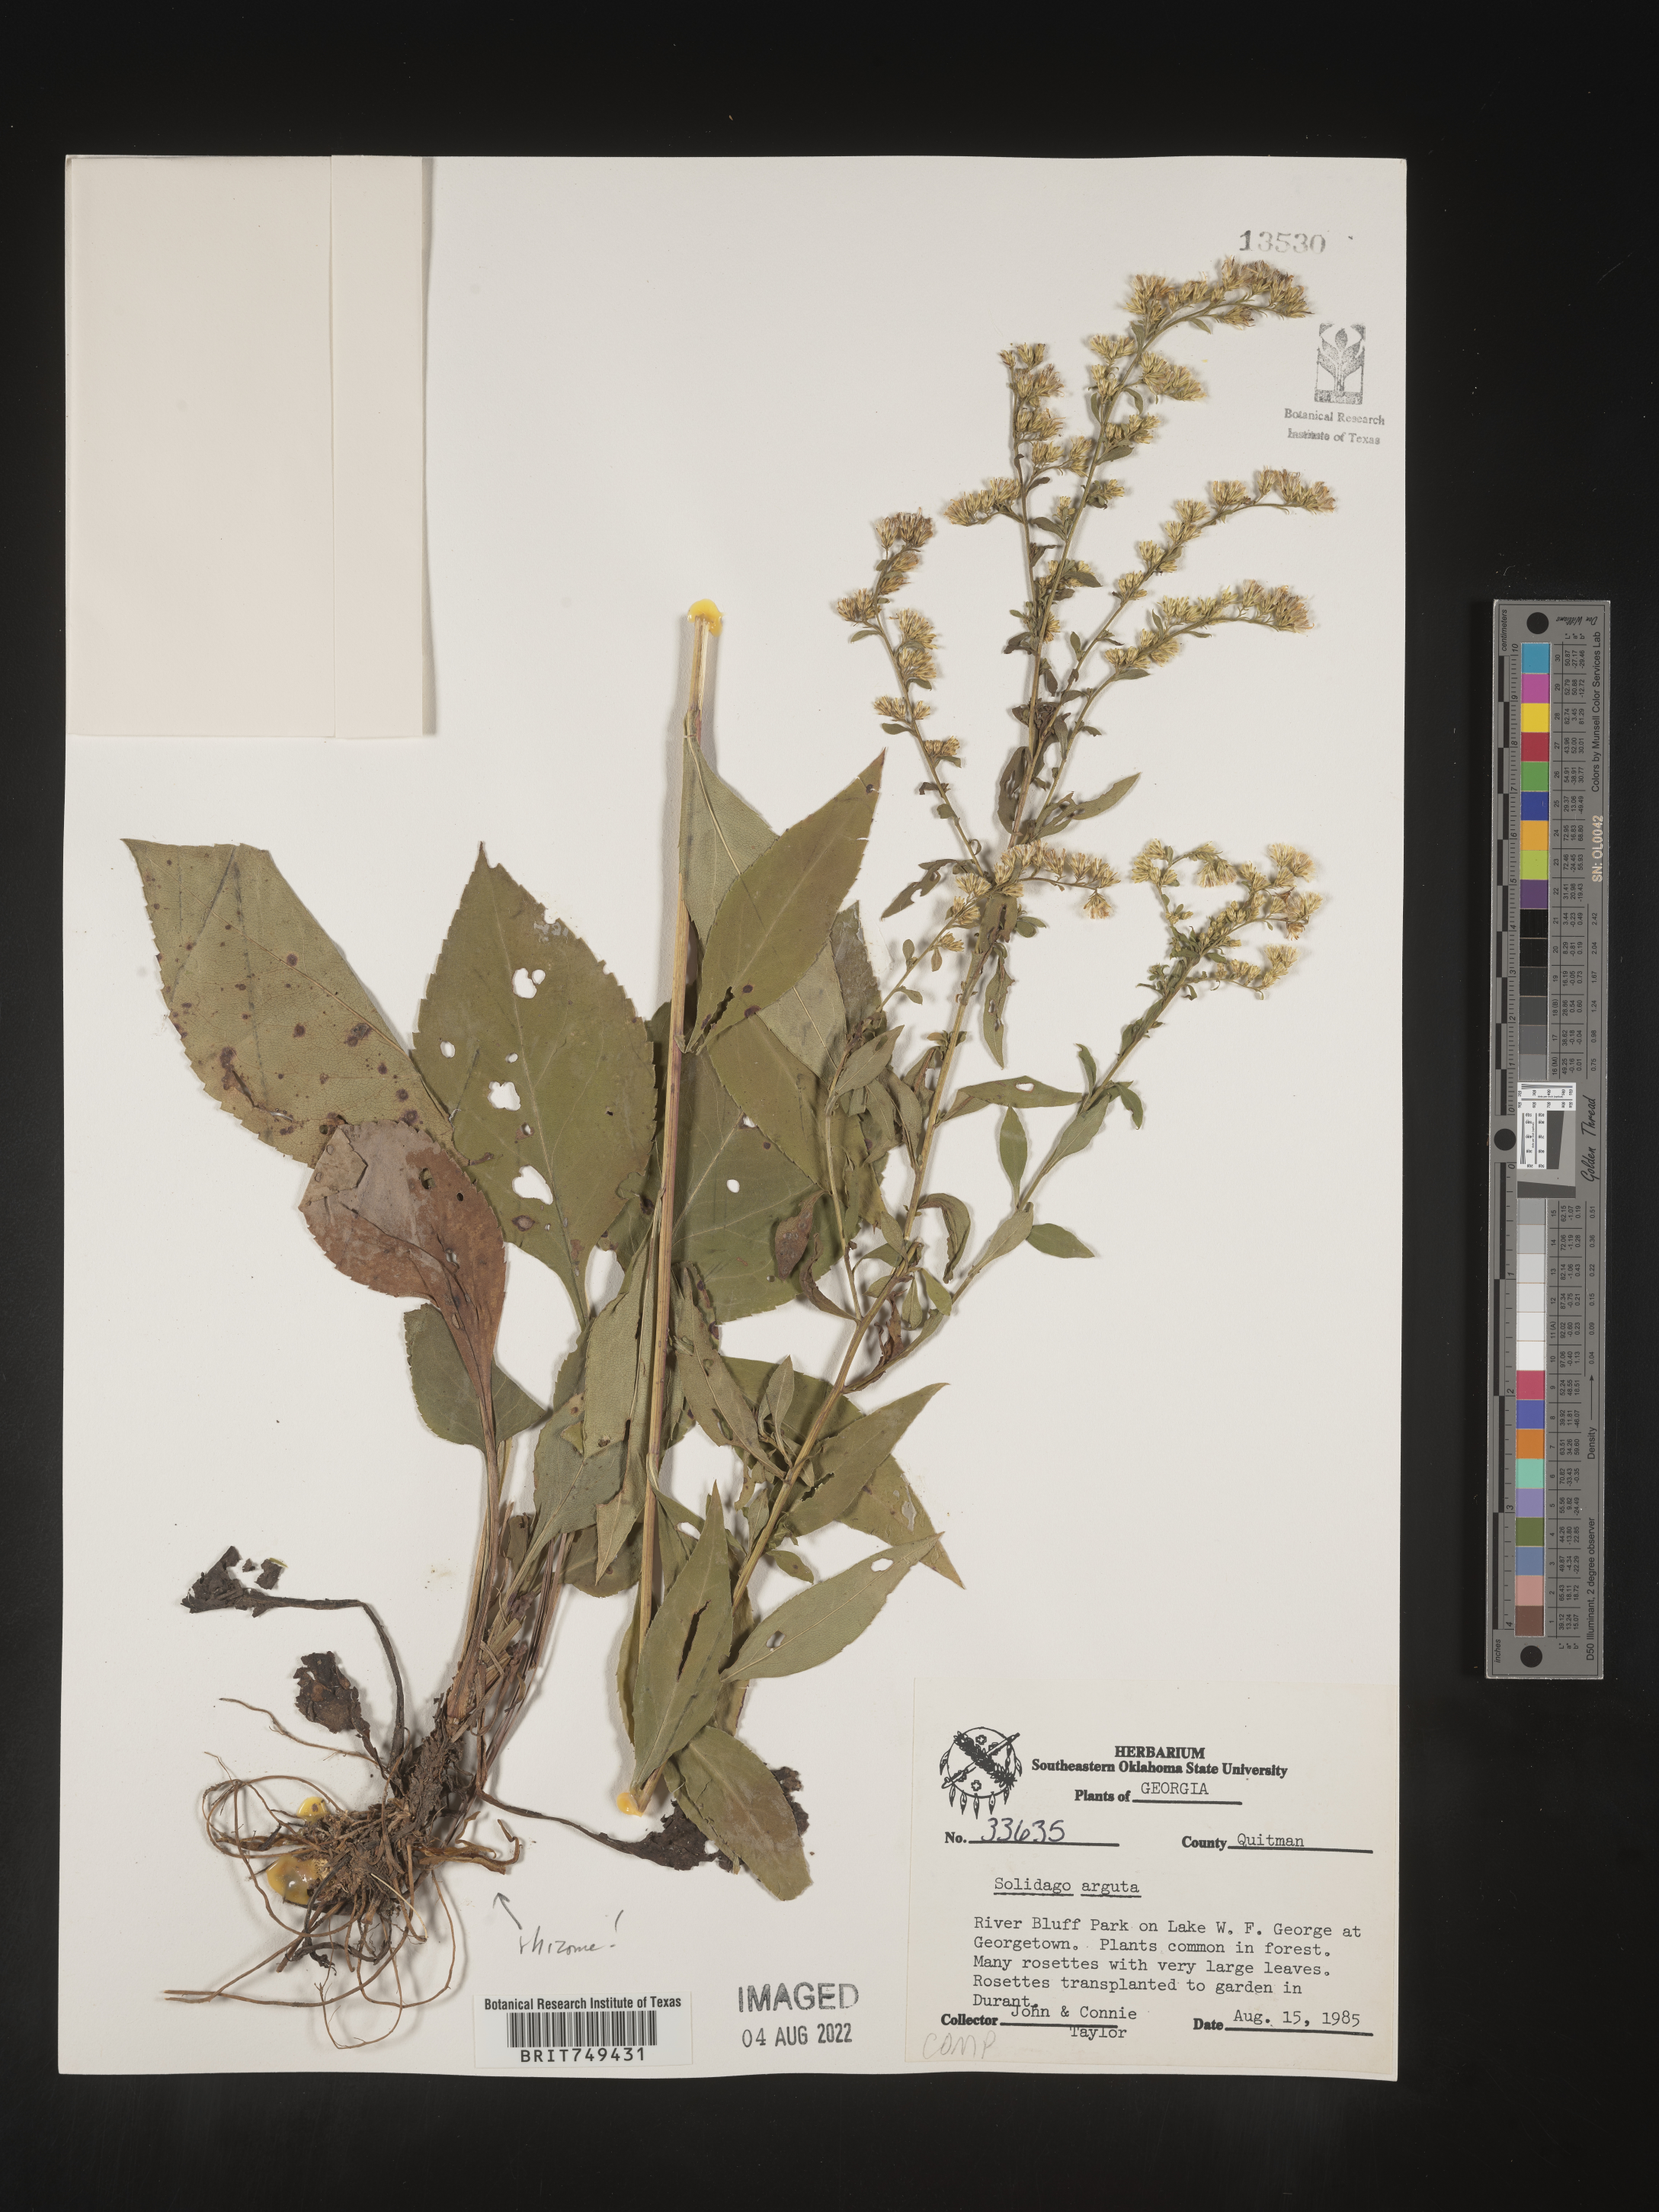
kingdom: Plantae
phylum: Tracheophyta
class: Magnoliopsida
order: Asterales
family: Asteraceae
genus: Solidago
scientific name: Solidago tarda
